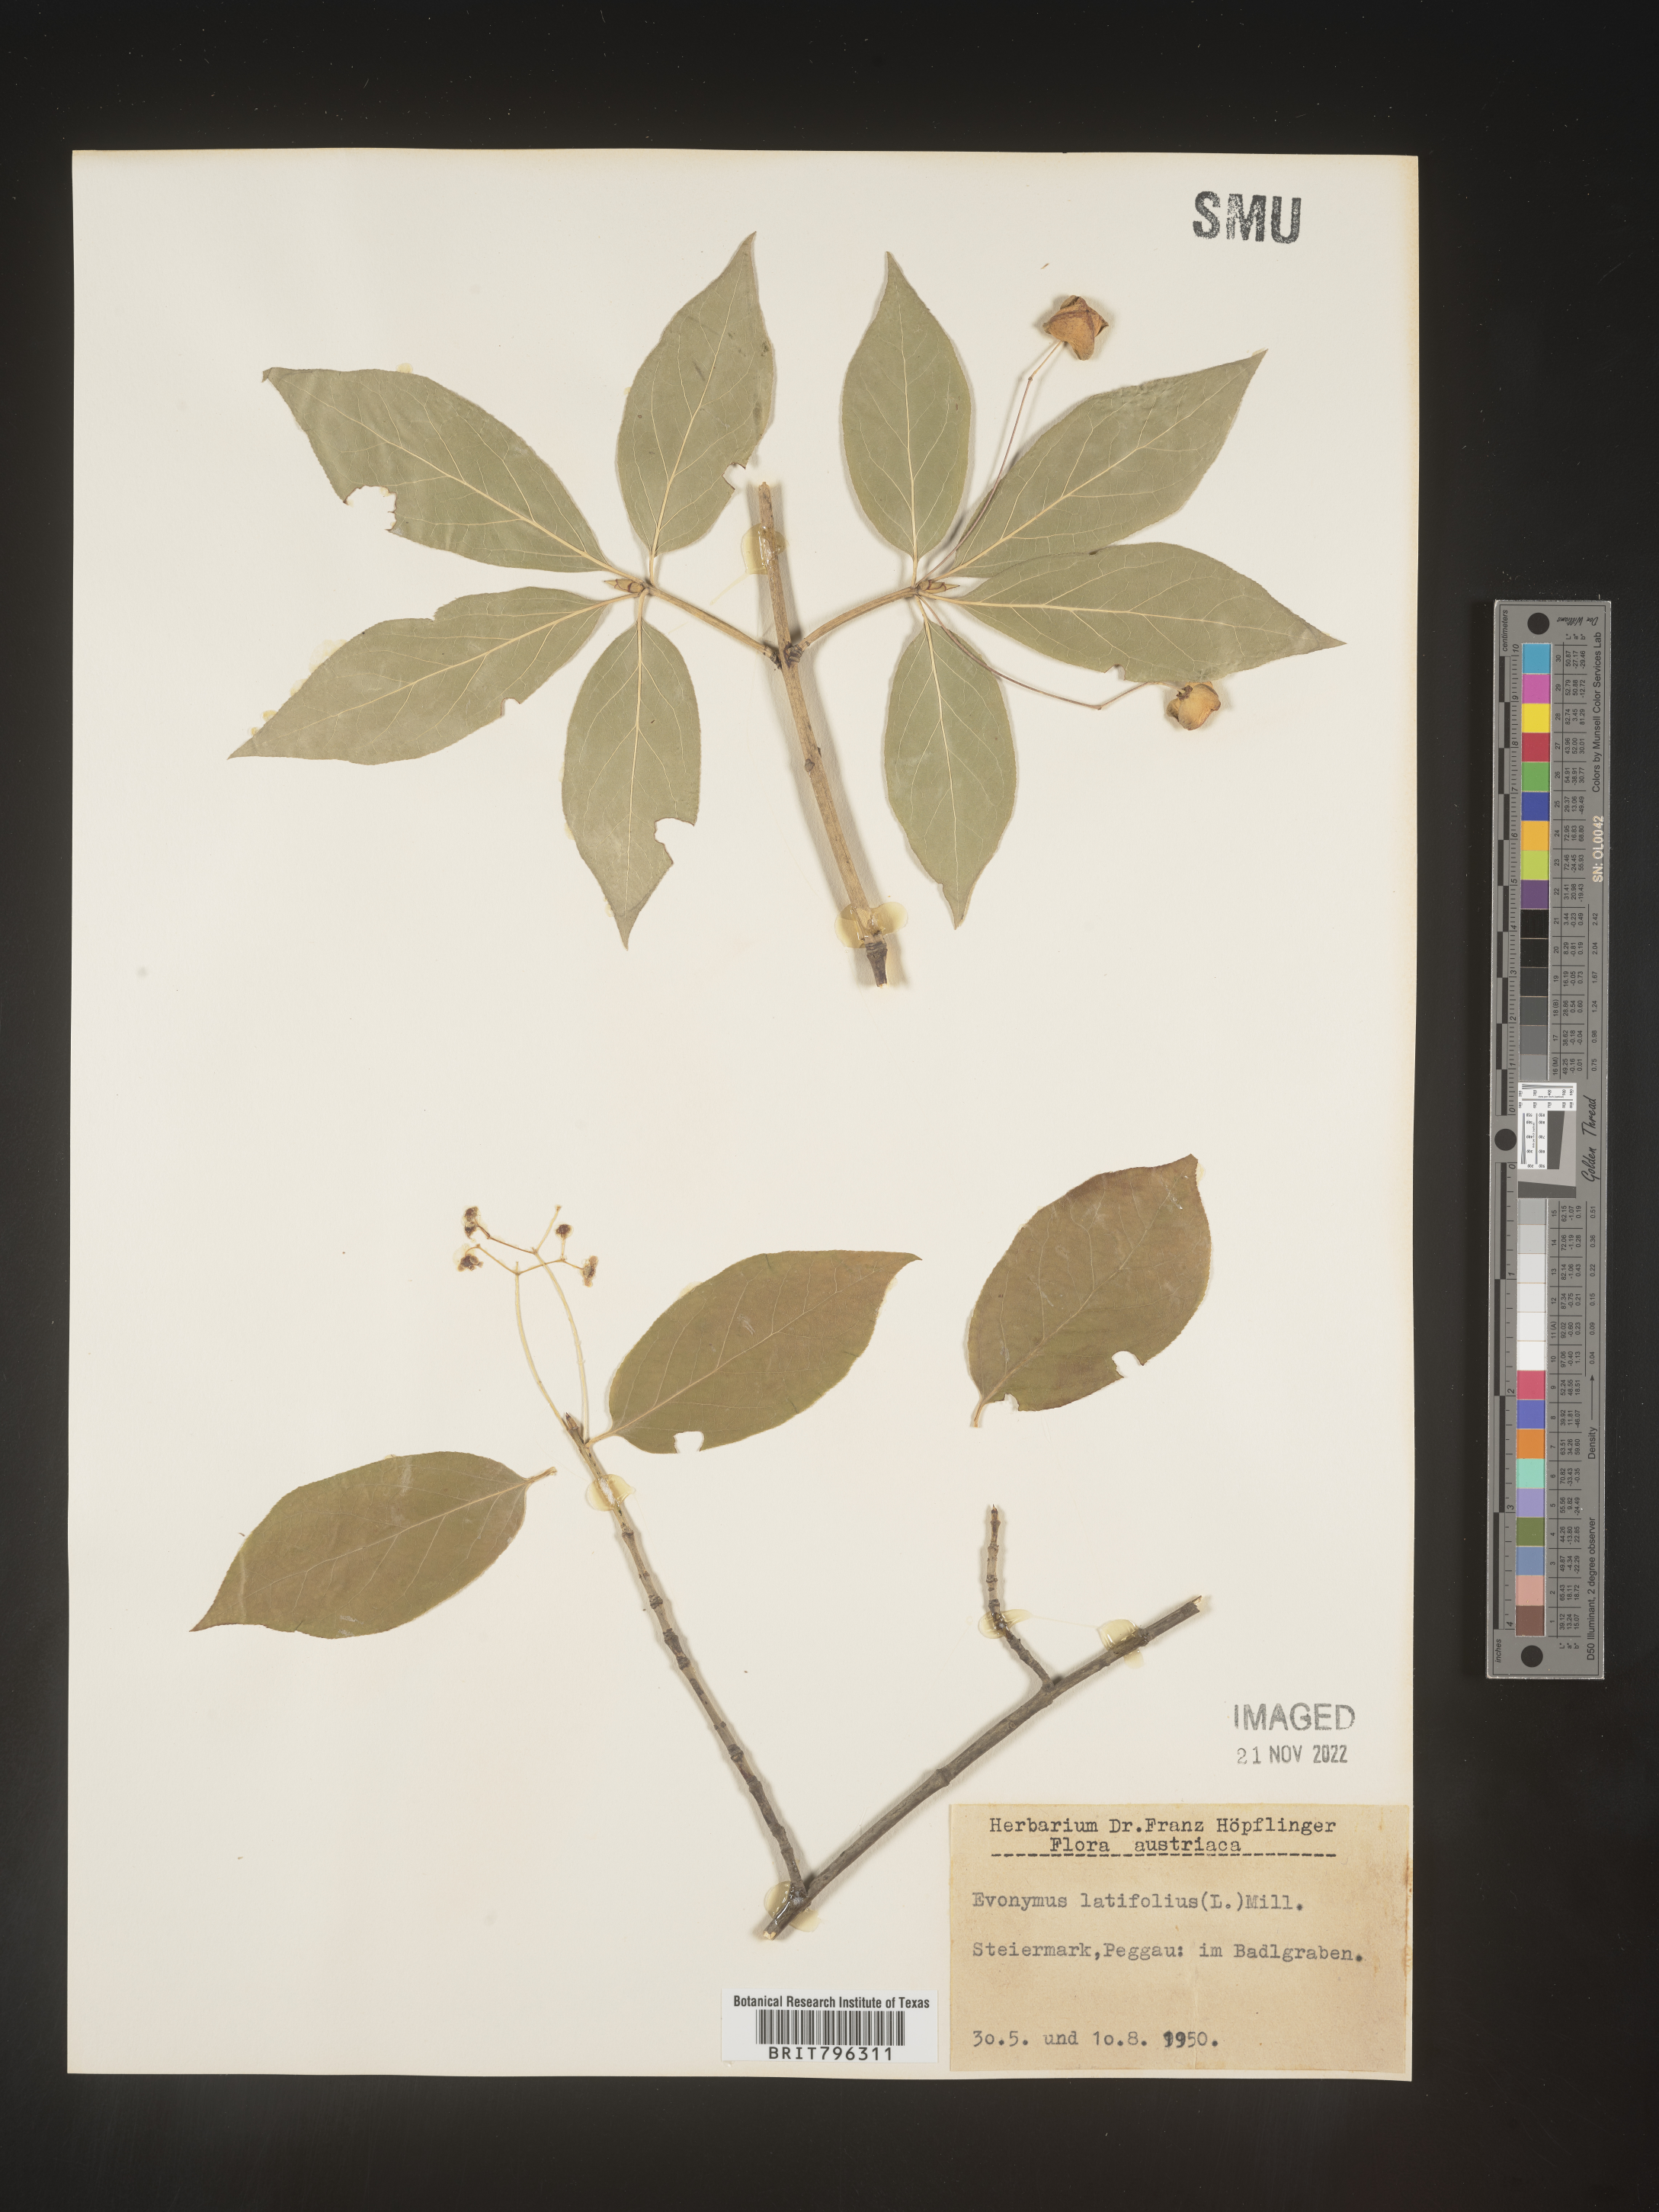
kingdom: Plantae
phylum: Tracheophyta
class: Magnoliopsida
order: Celastrales
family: Celastraceae
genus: Euonymus
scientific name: Euonymus
